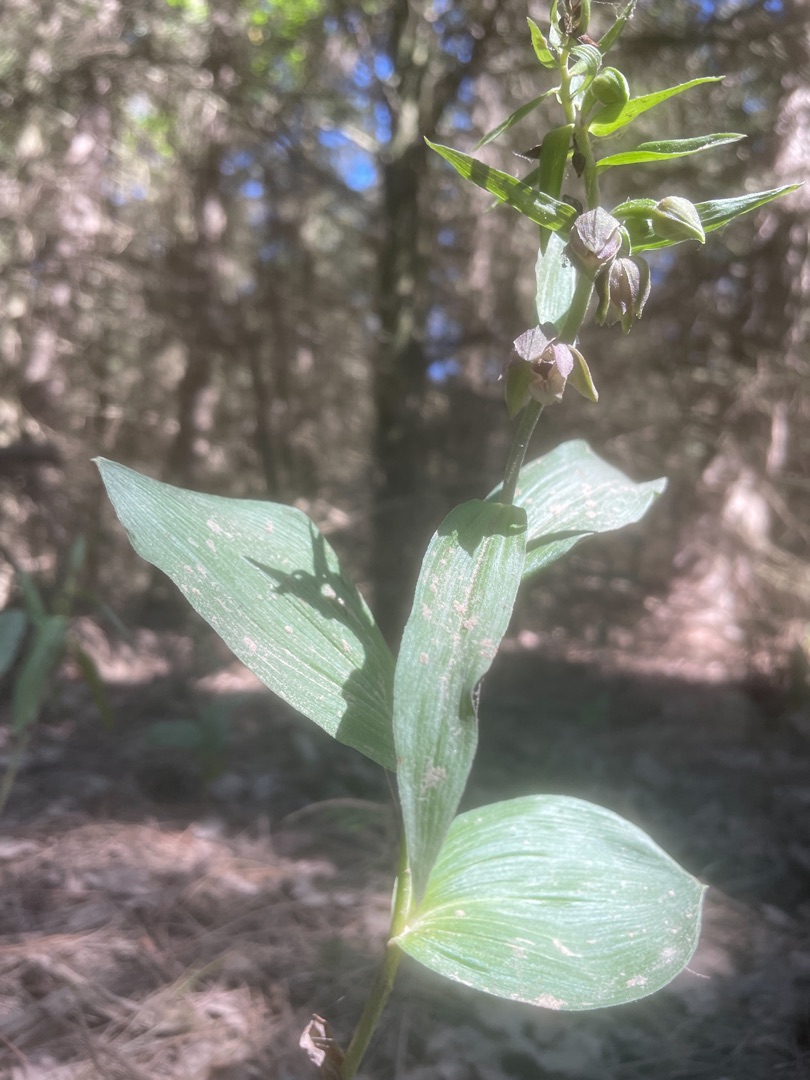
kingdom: Plantae
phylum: Tracheophyta
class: Liliopsida
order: Asparagales
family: Orchidaceae
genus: Epipactis
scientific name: Epipactis helleborine
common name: Skov-hullæbe
